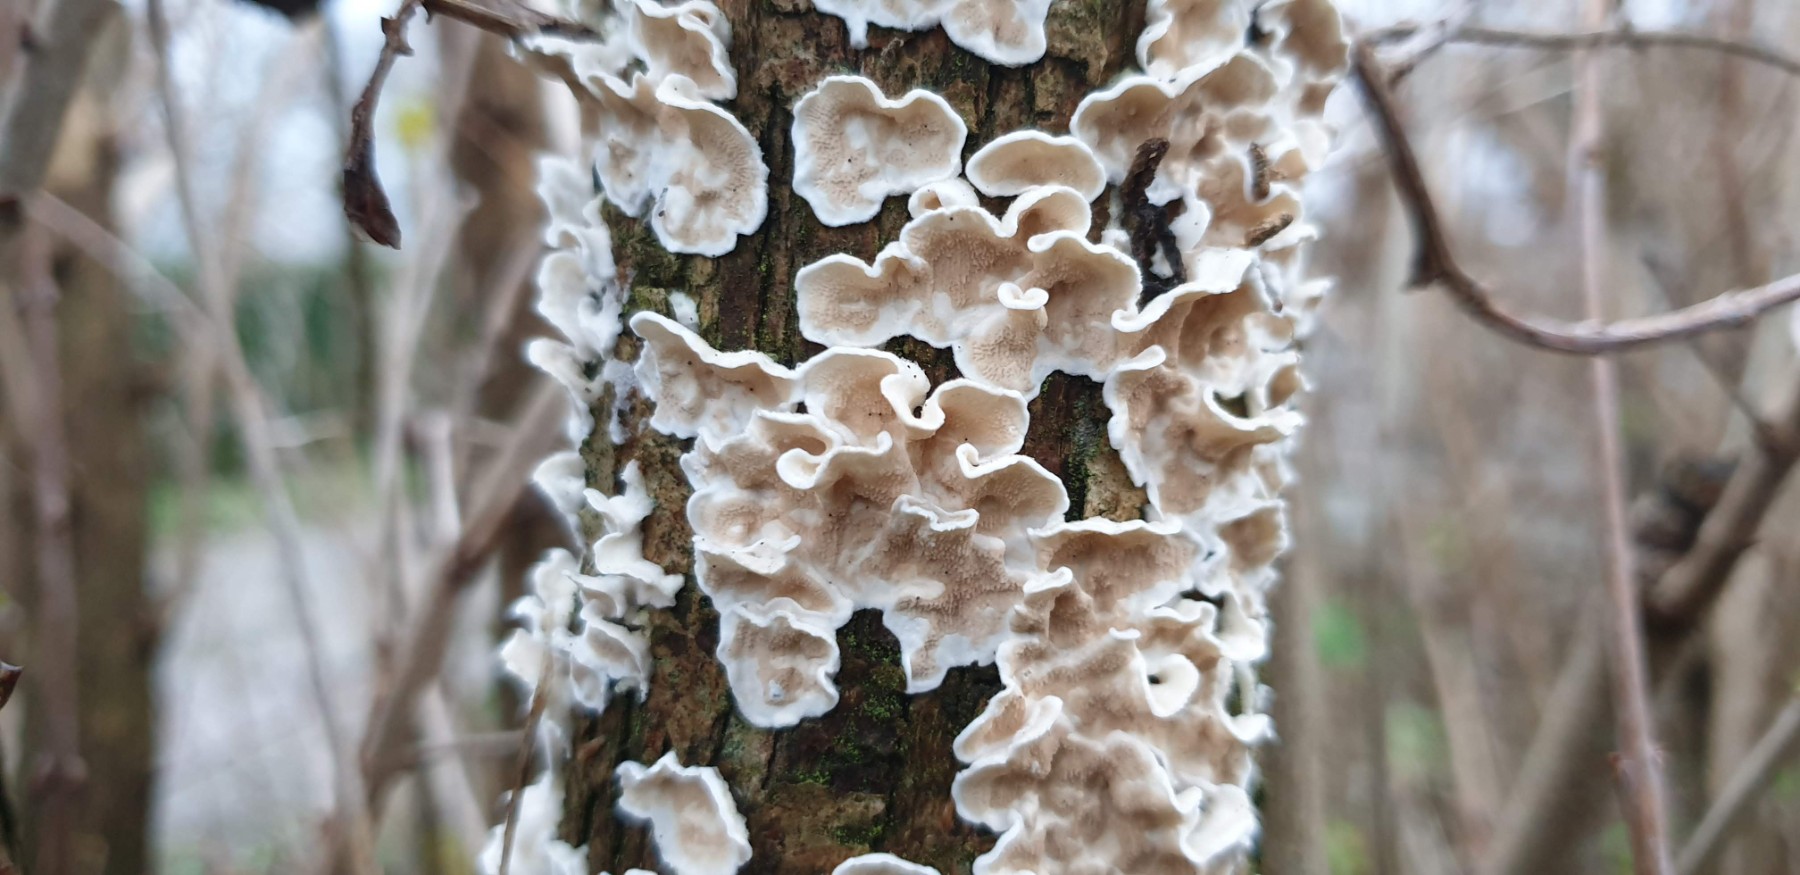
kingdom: Fungi
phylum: Basidiomycota
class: Agaricomycetes
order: Polyporales
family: Irpicaceae
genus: Byssomerulius
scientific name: Byssomerulius corium
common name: læder-åresvamp
